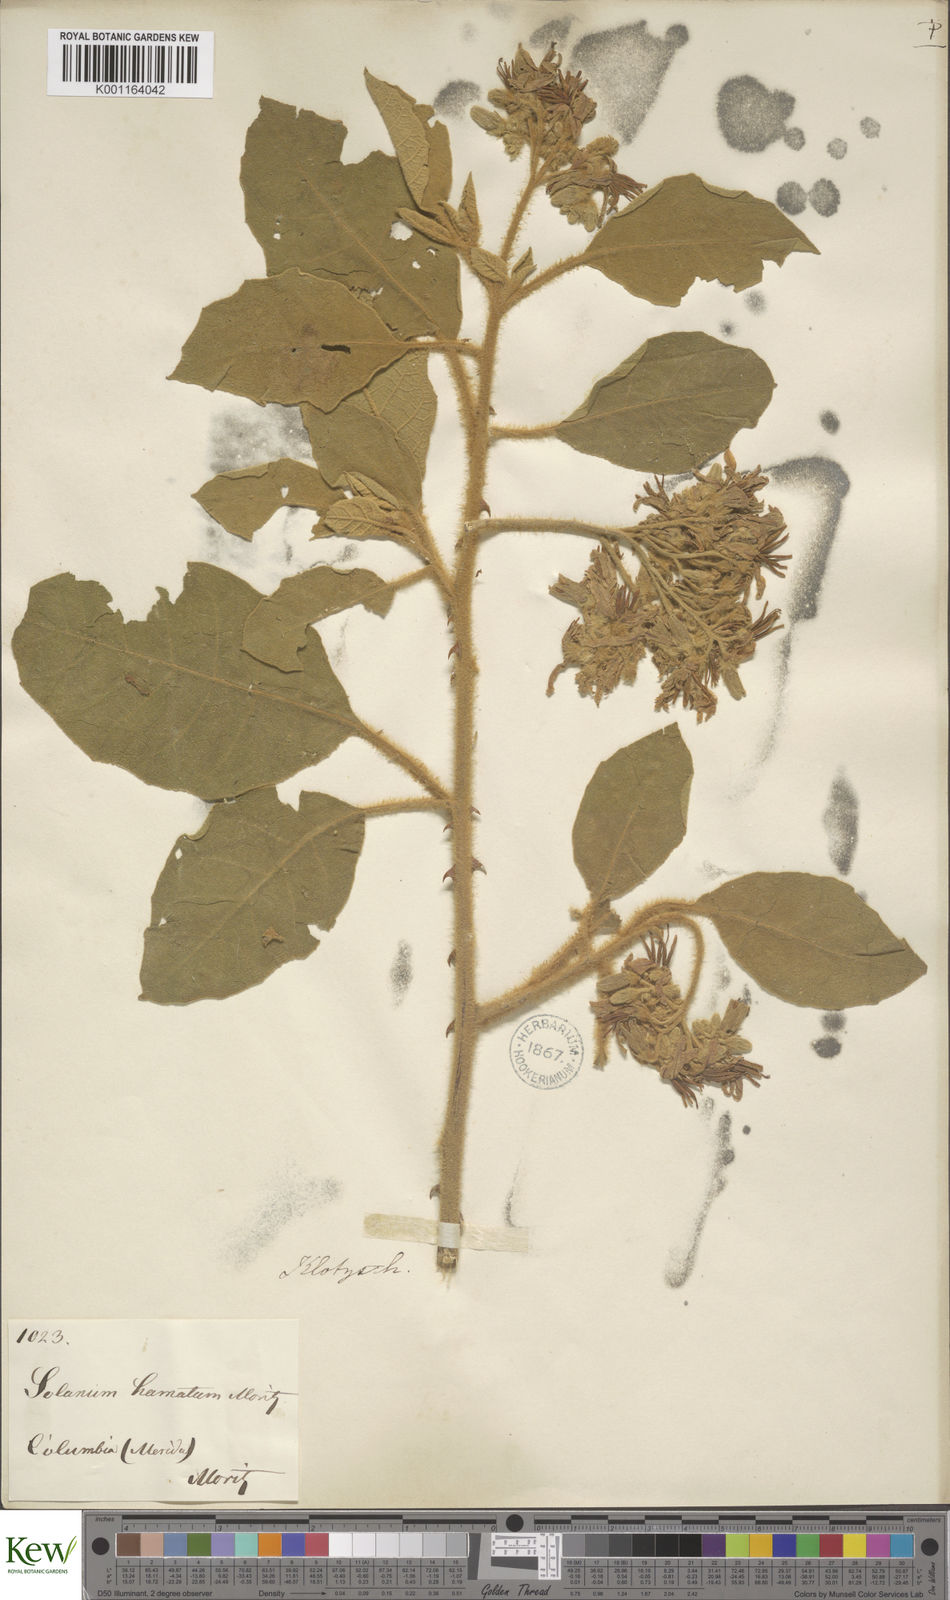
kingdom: Plantae
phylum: Tracheophyta
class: Magnoliopsida
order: Solanales
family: Solanaceae
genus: Solanum
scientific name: Solanum
